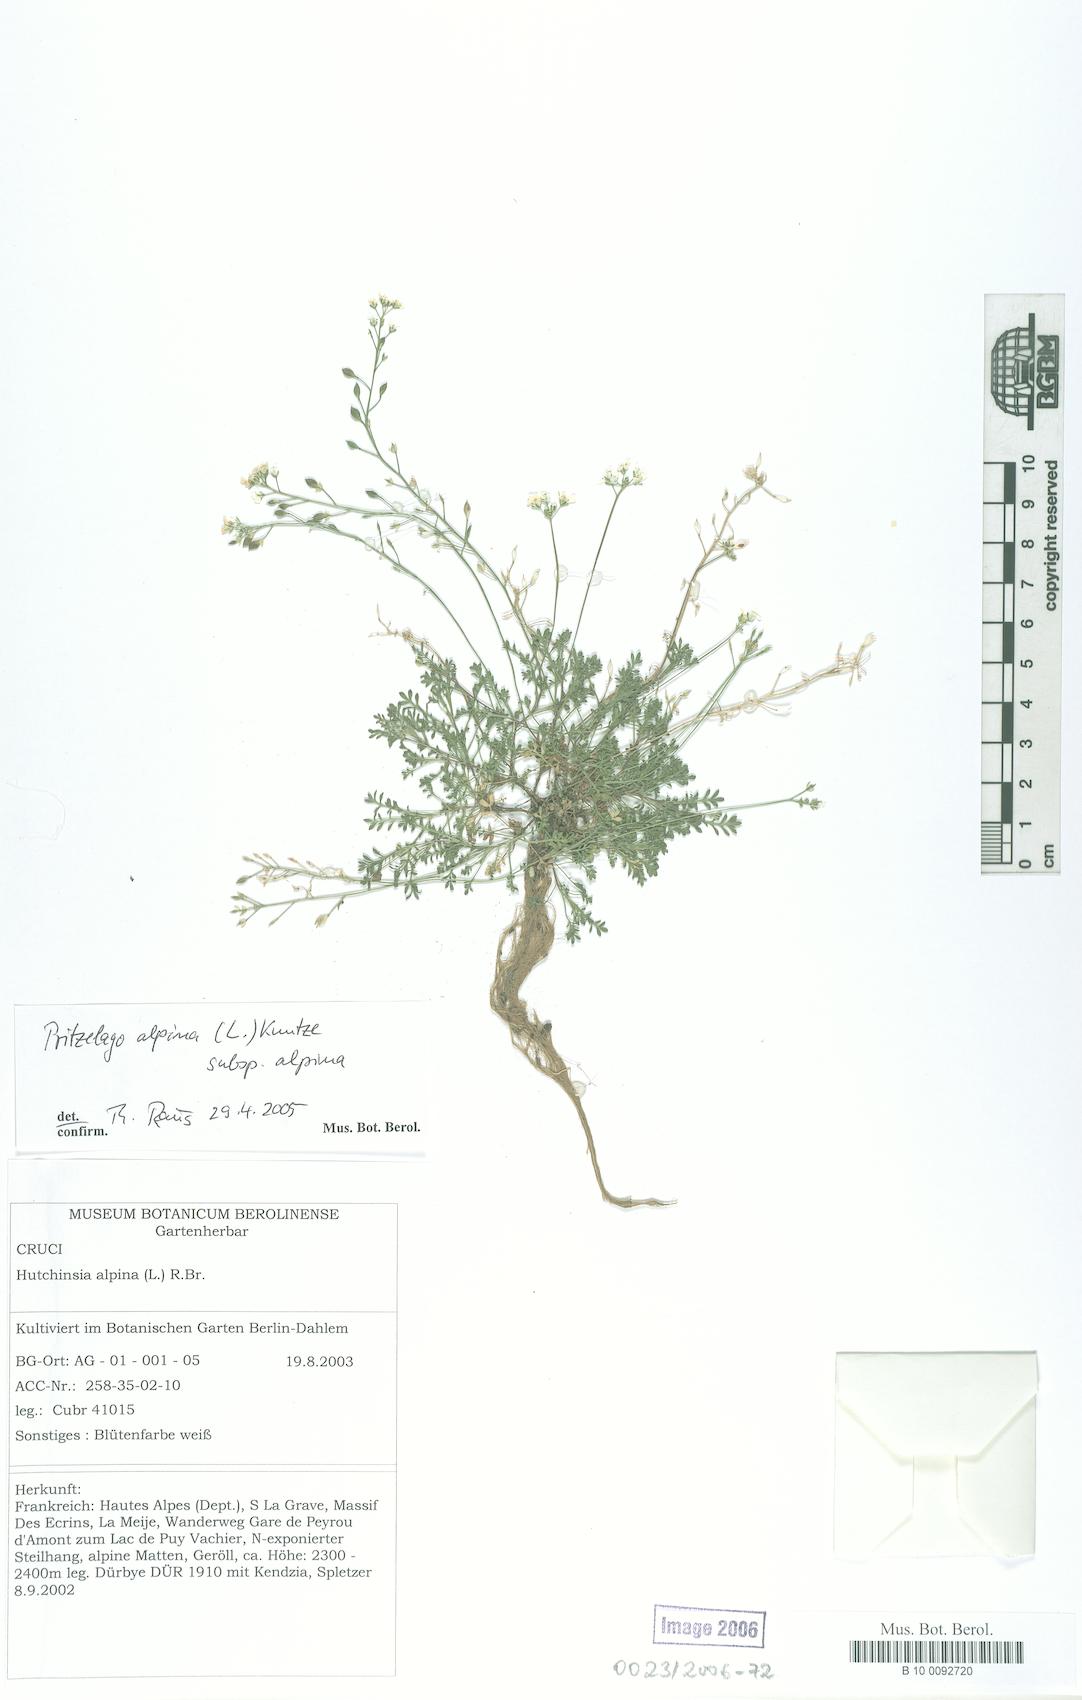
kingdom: Plantae
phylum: Tracheophyta
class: Magnoliopsida
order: Brassicales
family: Brassicaceae
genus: Hornungia
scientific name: Hornungia alpina
